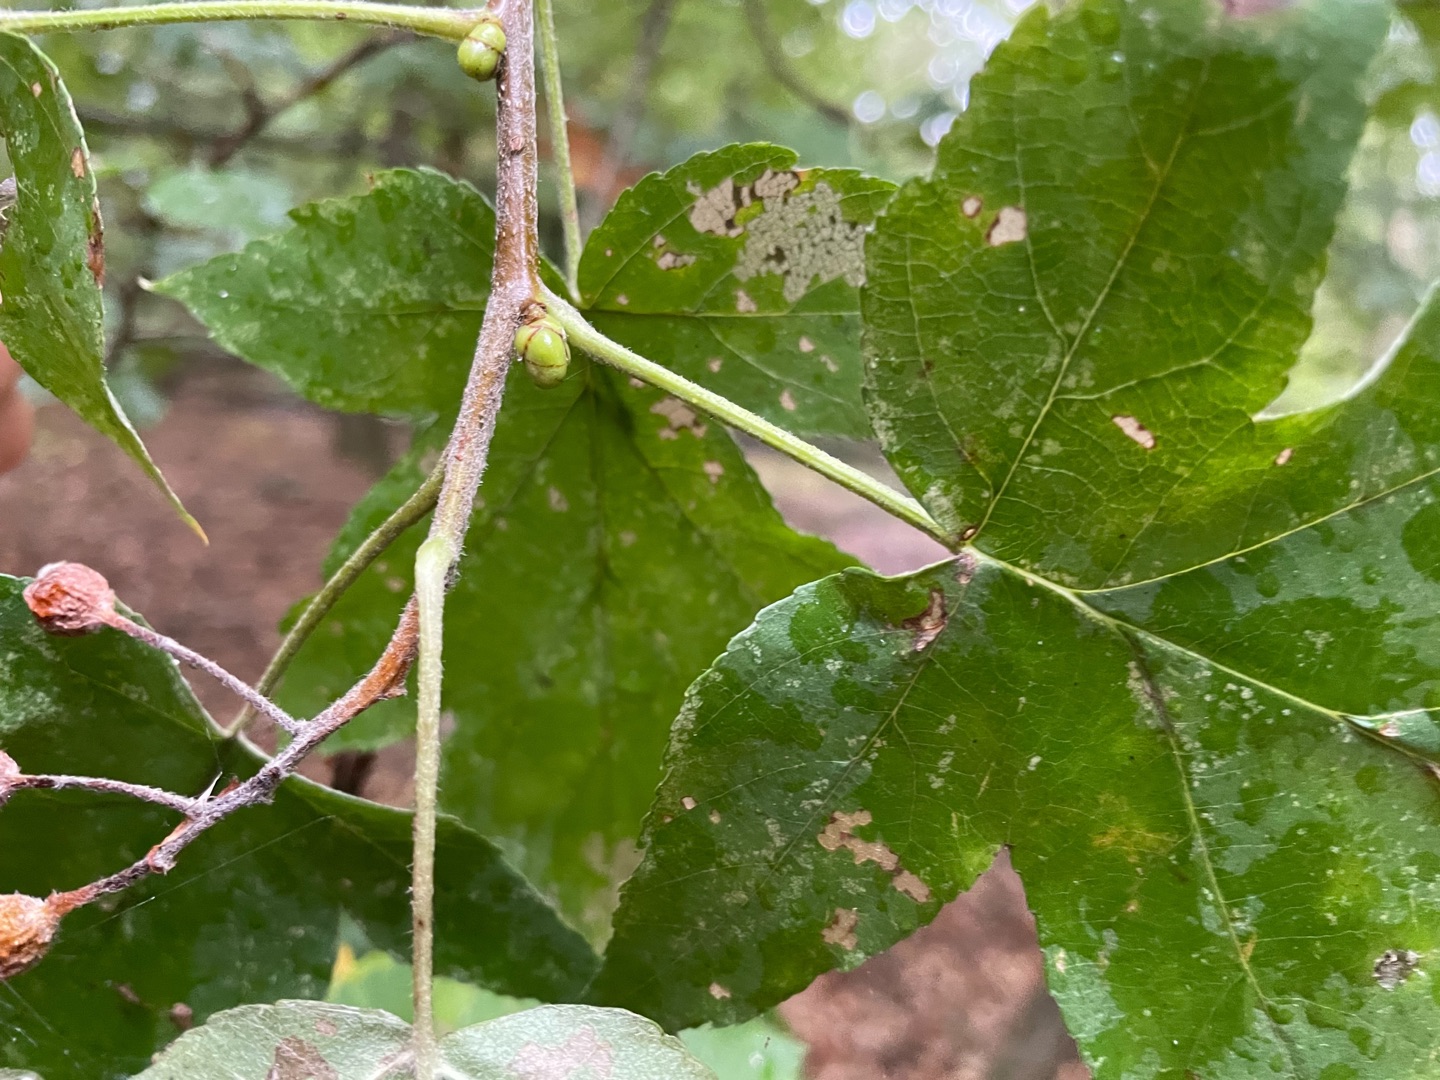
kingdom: Plantae
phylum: Tracheophyta
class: Magnoliopsida
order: Rosales
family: Rosaceae
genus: Torminalis
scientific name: Torminalis glaberrima
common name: Tarmvrid-røn
